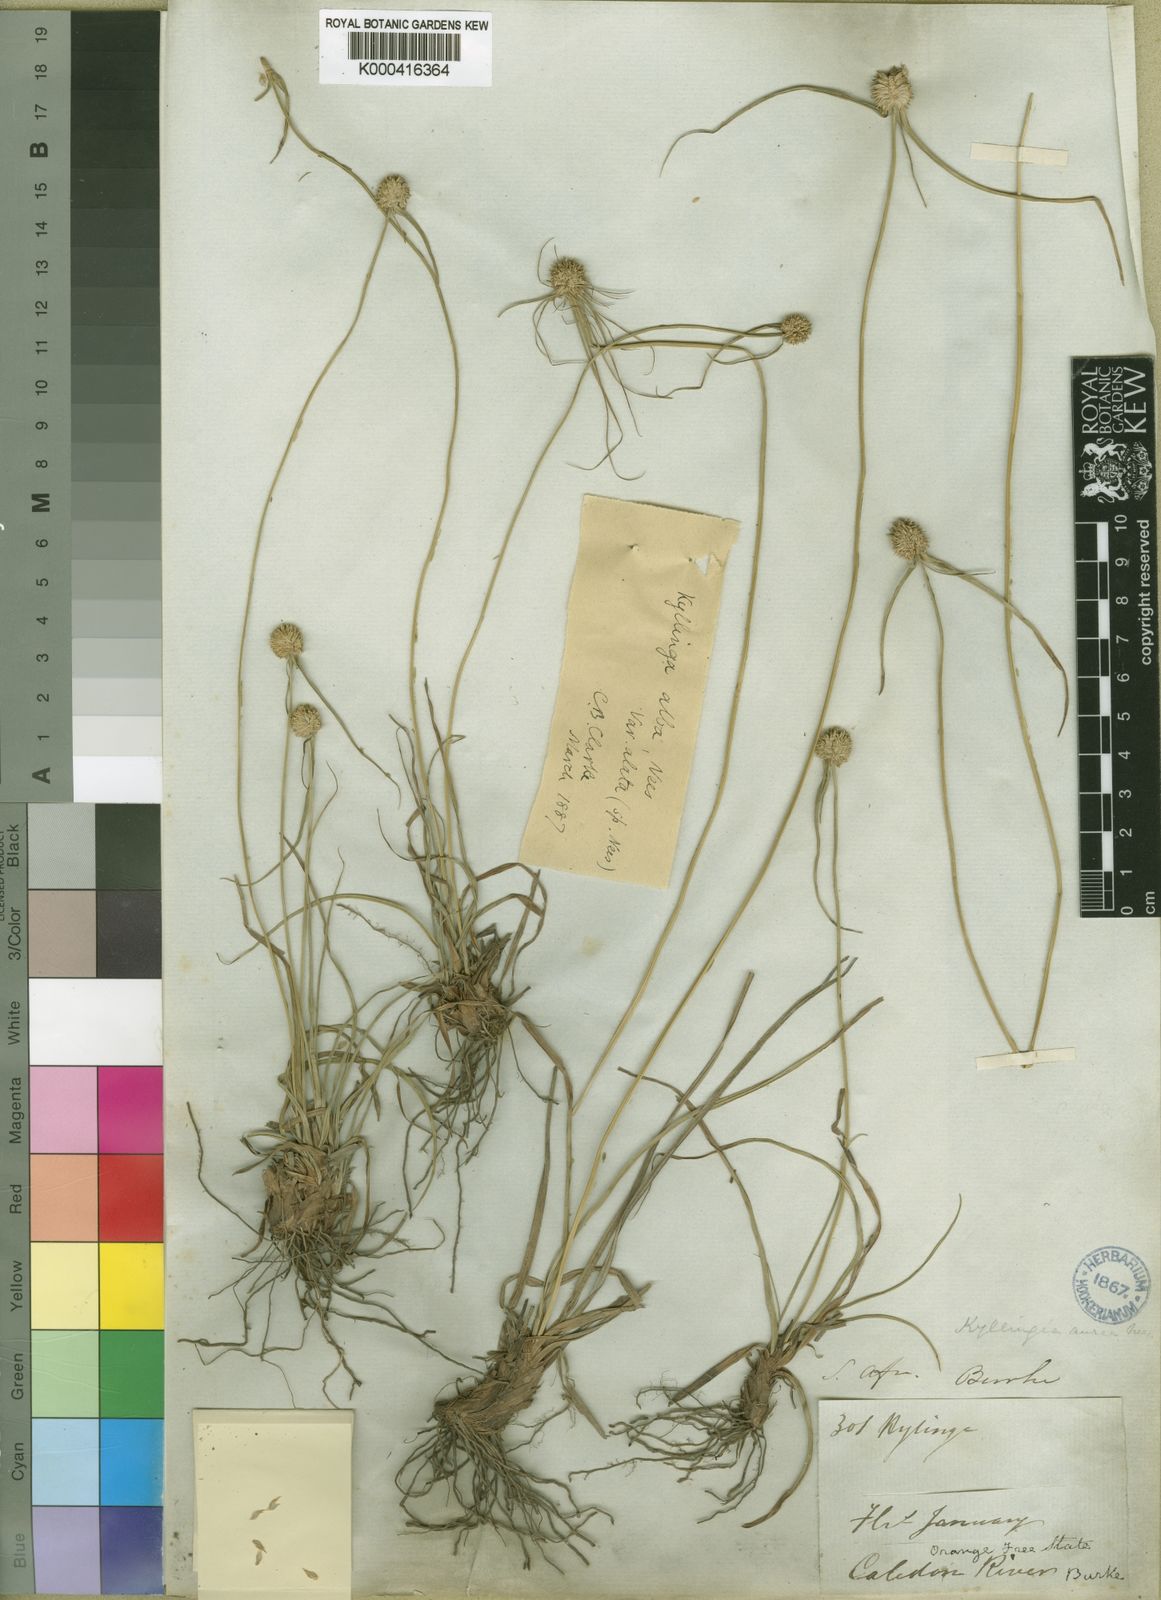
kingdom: Plantae
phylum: Tracheophyta
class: Liliopsida
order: Poales
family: Cyperaceae
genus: Cyperus
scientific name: Cyperus alatus
